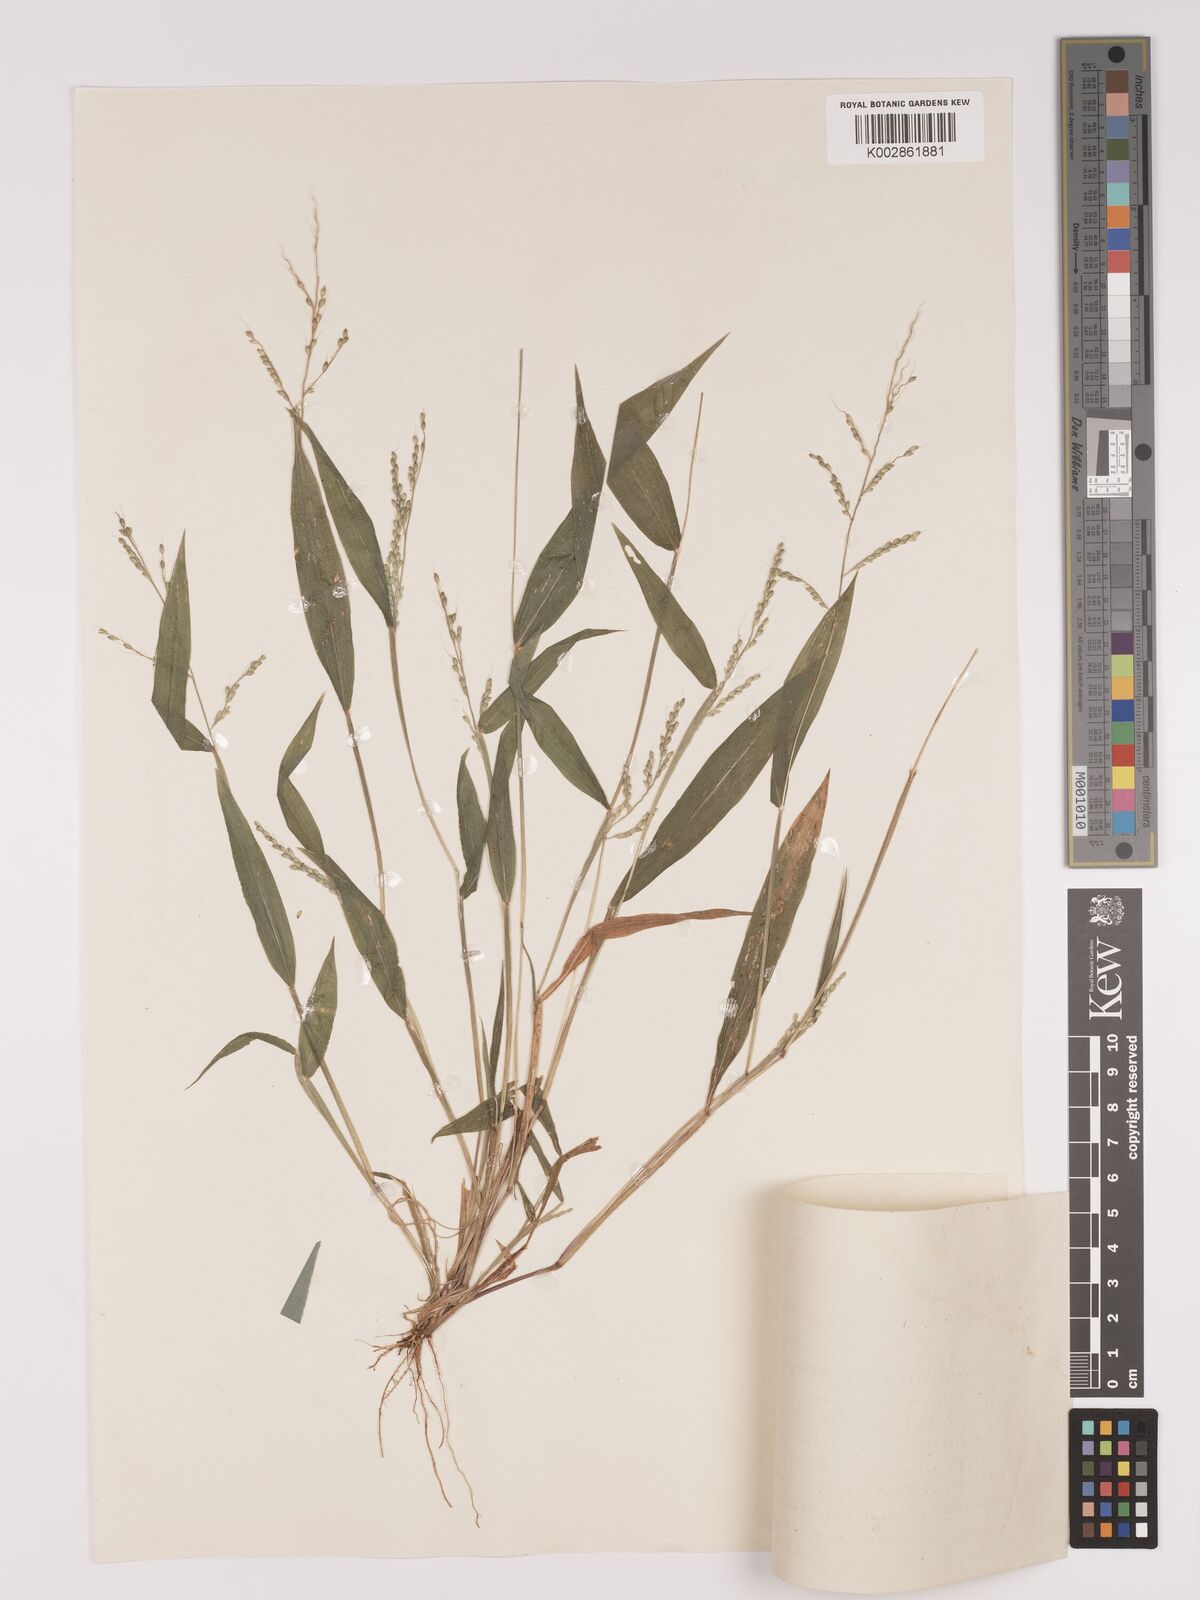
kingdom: Plantae
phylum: Tracheophyta
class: Liliopsida
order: Poales
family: Poaceae
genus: Setaria
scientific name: Setaria homonyma
